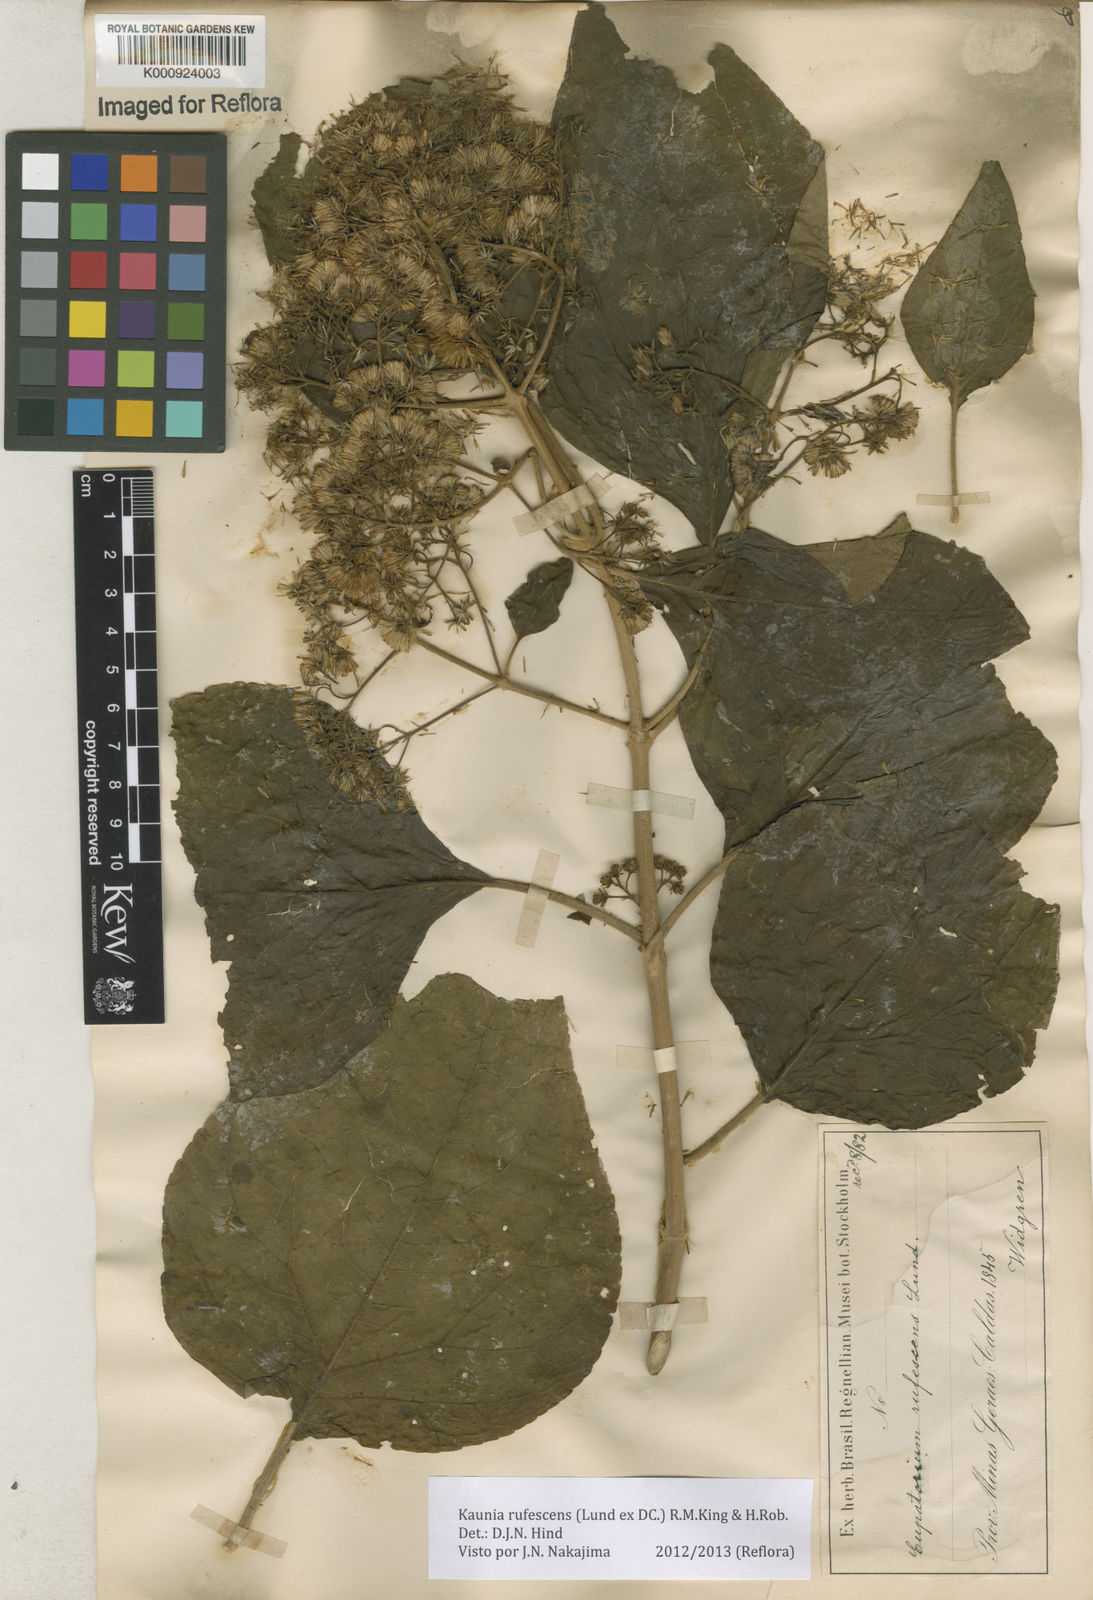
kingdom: Plantae
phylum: Tracheophyta
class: Magnoliopsida
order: Asterales
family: Asteraceae
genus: Kaunia
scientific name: Kaunia rufescens
